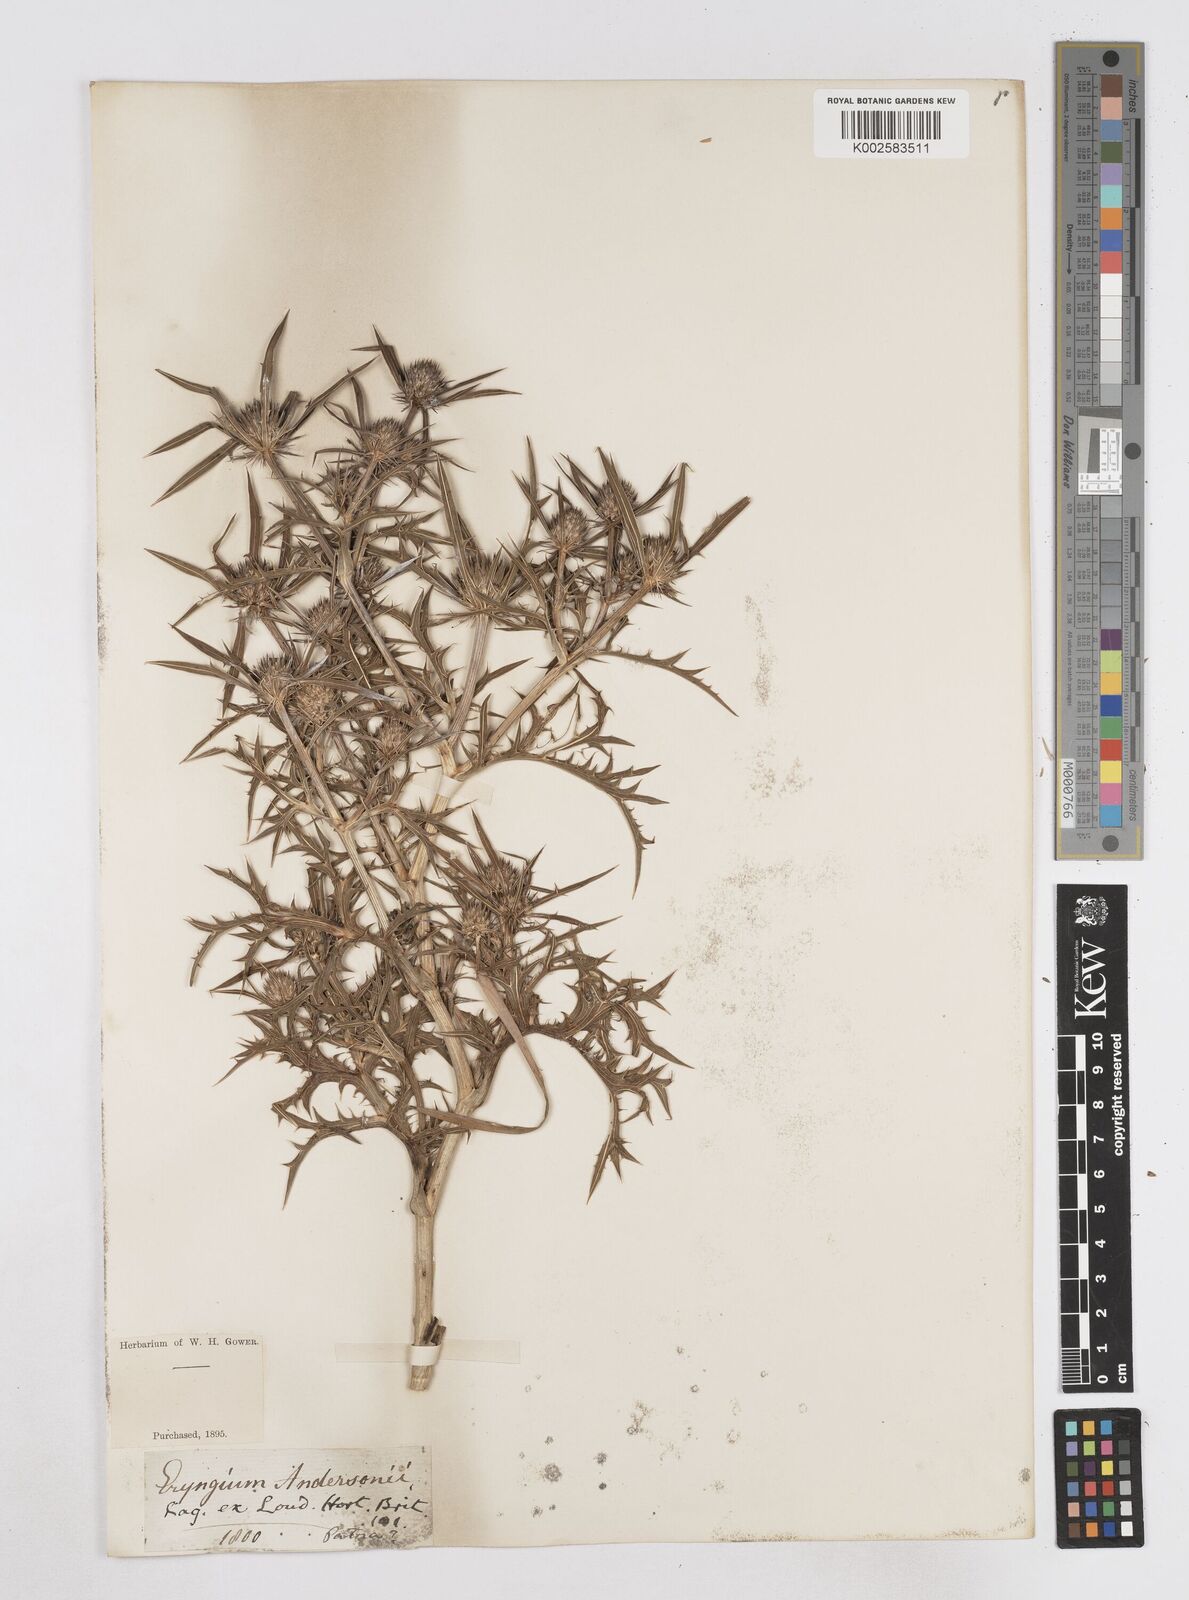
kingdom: Plantae
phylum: Tracheophyta
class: Magnoliopsida
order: Apiales
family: Apiaceae
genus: Eryngium
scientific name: Eryngium
